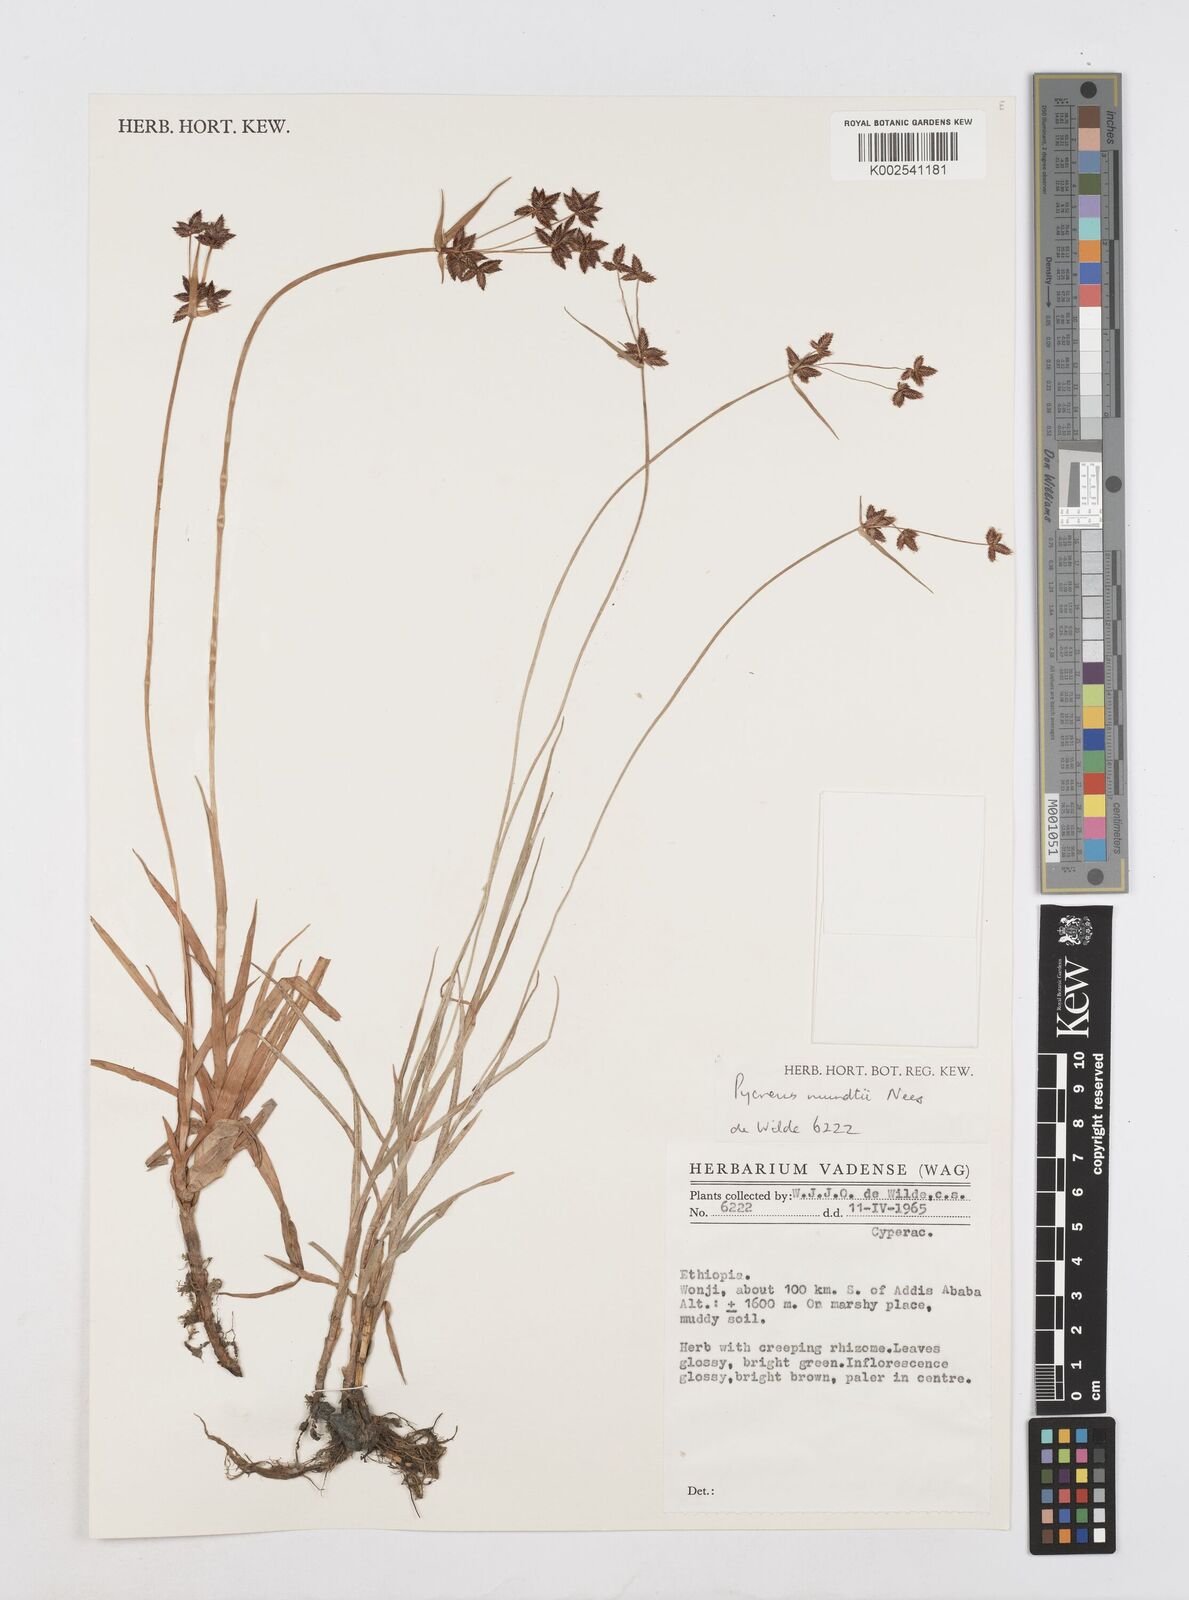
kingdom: Plantae
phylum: Tracheophyta
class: Liliopsida
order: Poales
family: Cyperaceae
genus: Cyperus
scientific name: Cyperus mundii
